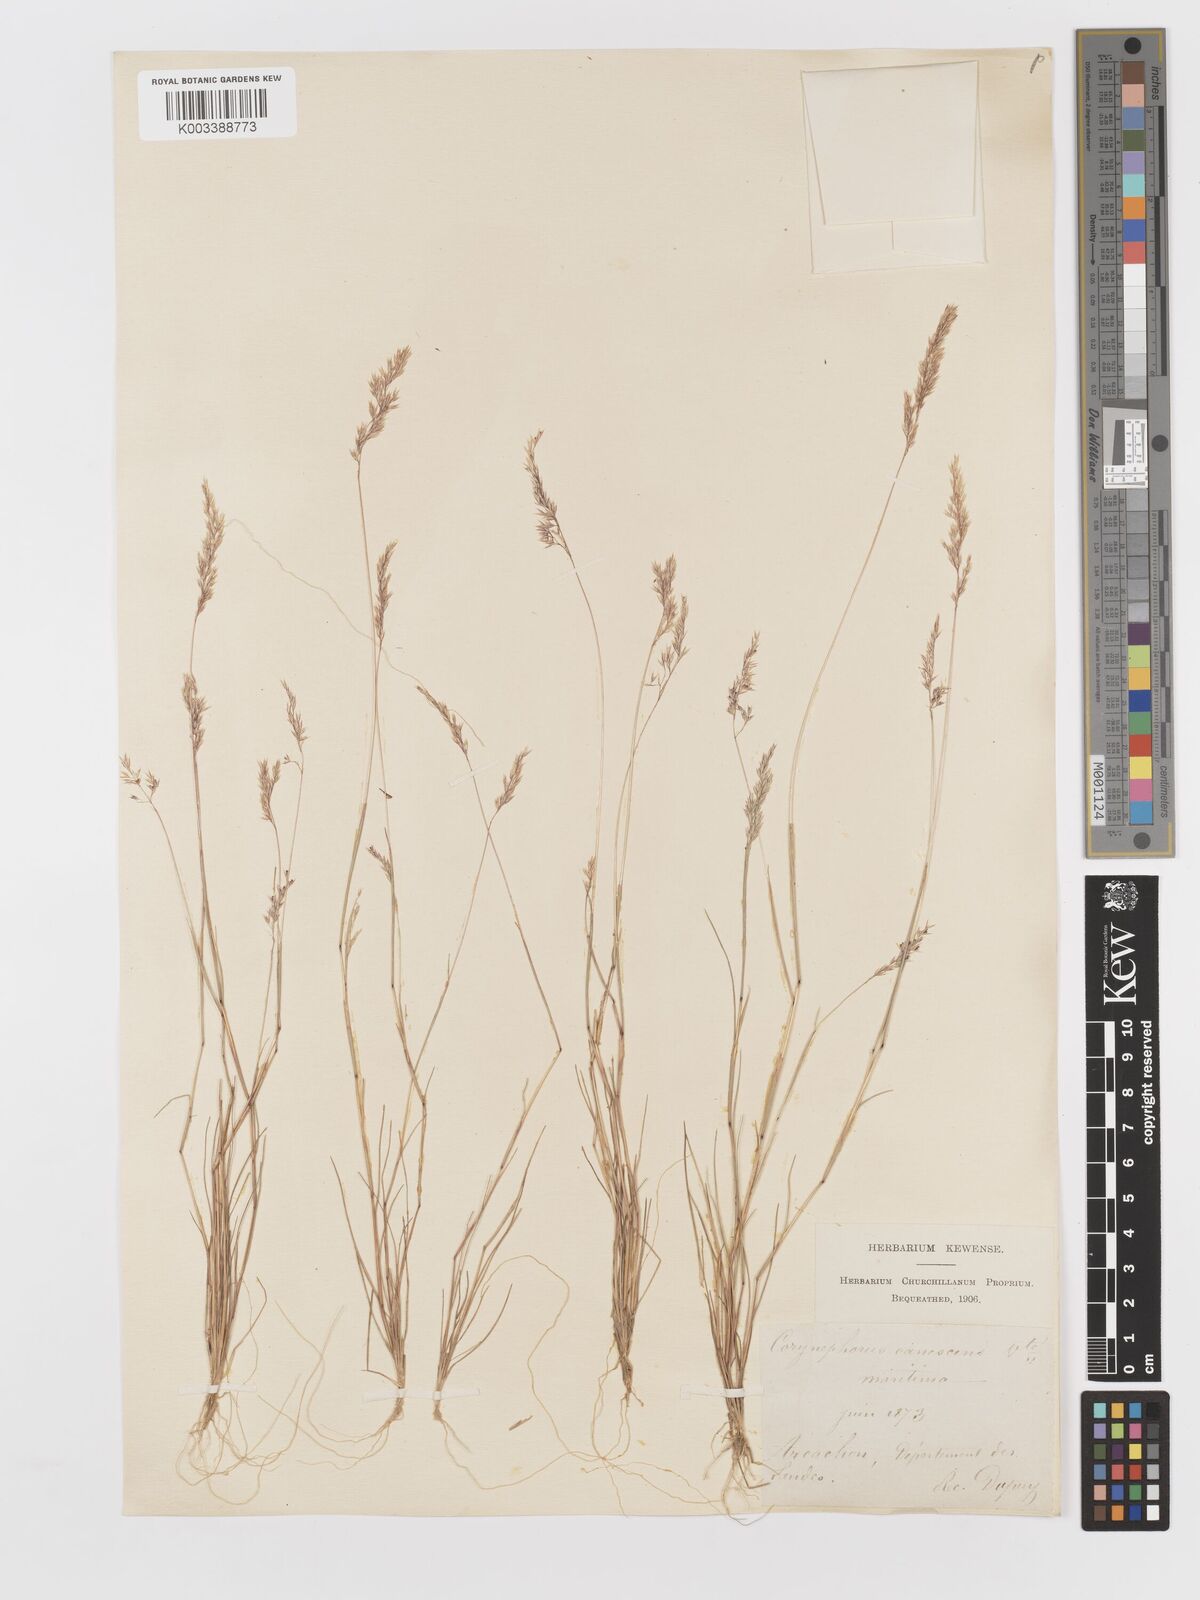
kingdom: Plantae
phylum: Tracheophyta
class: Liliopsida
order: Poales
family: Poaceae
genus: Corynephorus
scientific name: Corynephorus canescens
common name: Grey hair-grass
